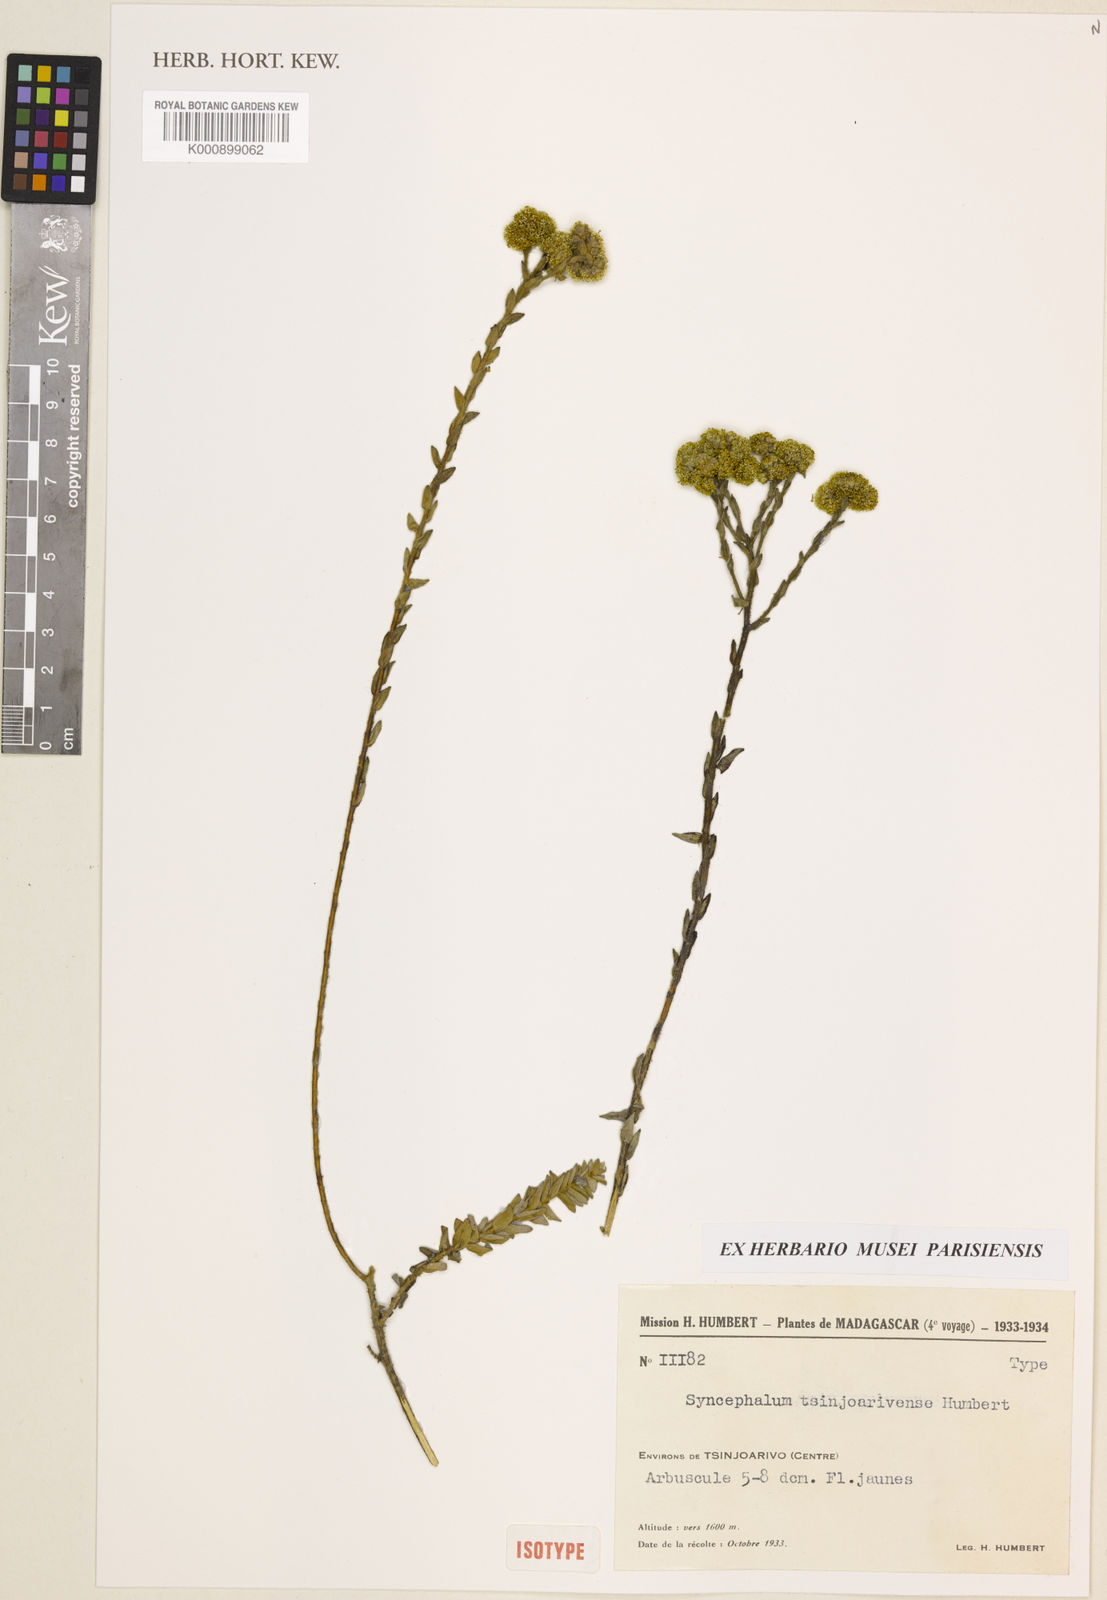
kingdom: Plantae
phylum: Tracheophyta
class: Magnoliopsida
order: Asterales
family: Asteraceae
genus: Syncephalum
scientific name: Syncephalum tsinjoarivense
